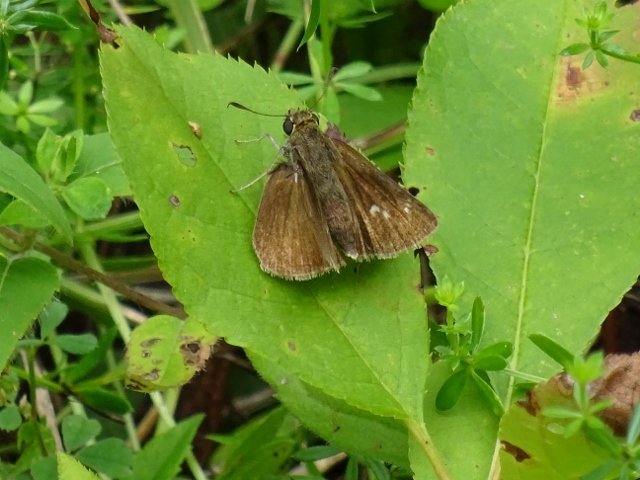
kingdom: Animalia
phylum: Arthropoda
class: Insecta
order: Lepidoptera
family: Hesperiidae
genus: Polites
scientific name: Polites egeremet
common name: Northern Broken-Dash
